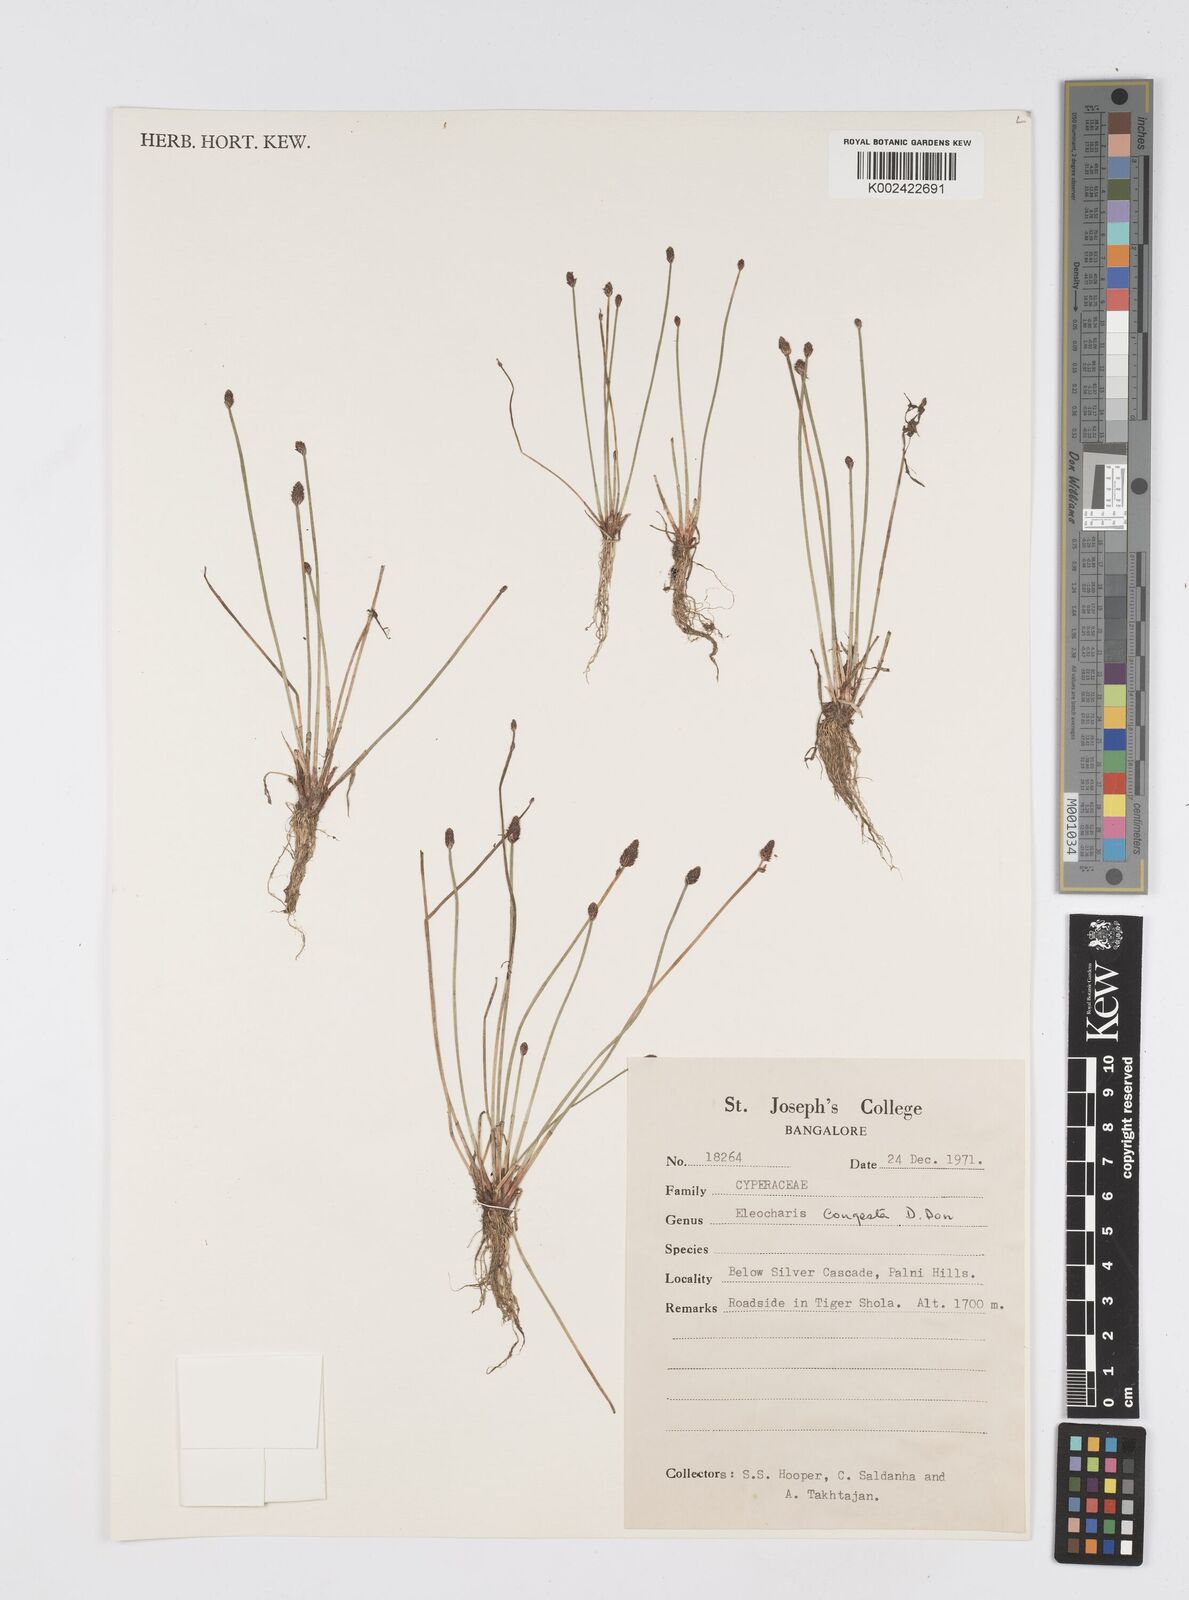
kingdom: Plantae
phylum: Tracheophyta
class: Liliopsida
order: Poales
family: Cyperaceae
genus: Eleocharis
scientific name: Eleocharis congesta
